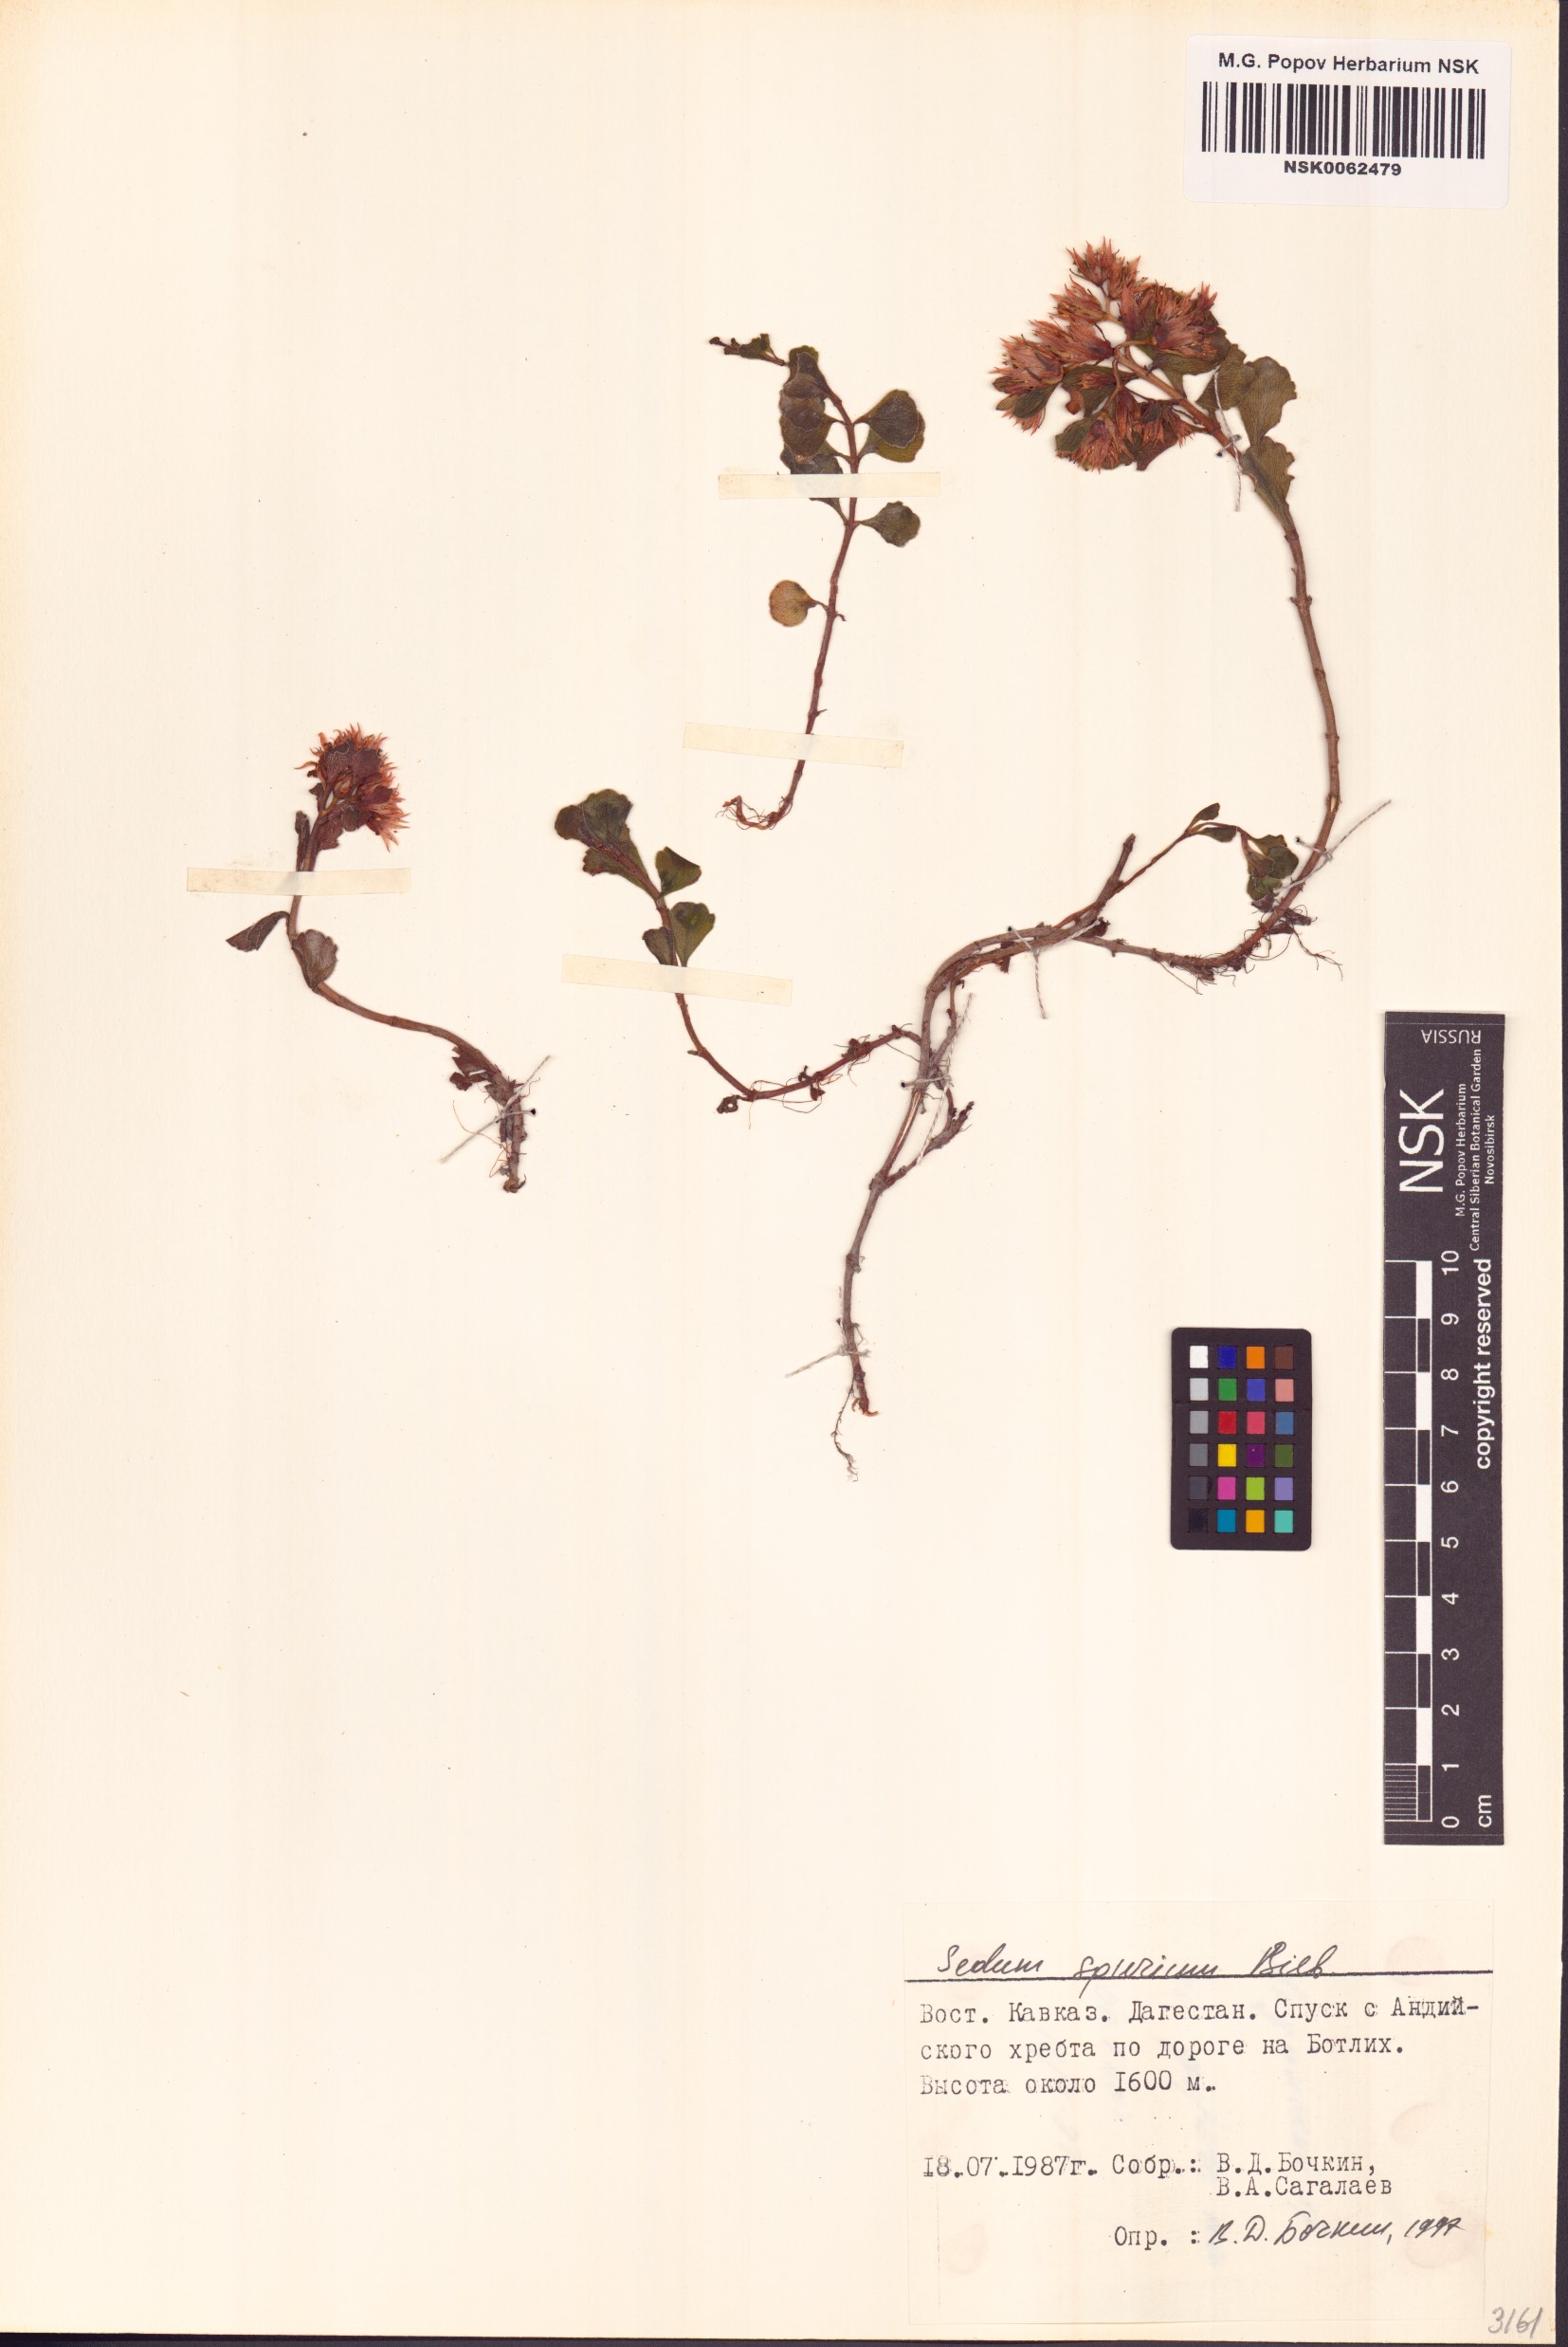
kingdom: Plantae
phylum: Tracheophyta
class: Magnoliopsida
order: Saxifragales
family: Crassulaceae
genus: Phedimus
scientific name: Phedimus spurius
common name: Caucasian stonecrop
